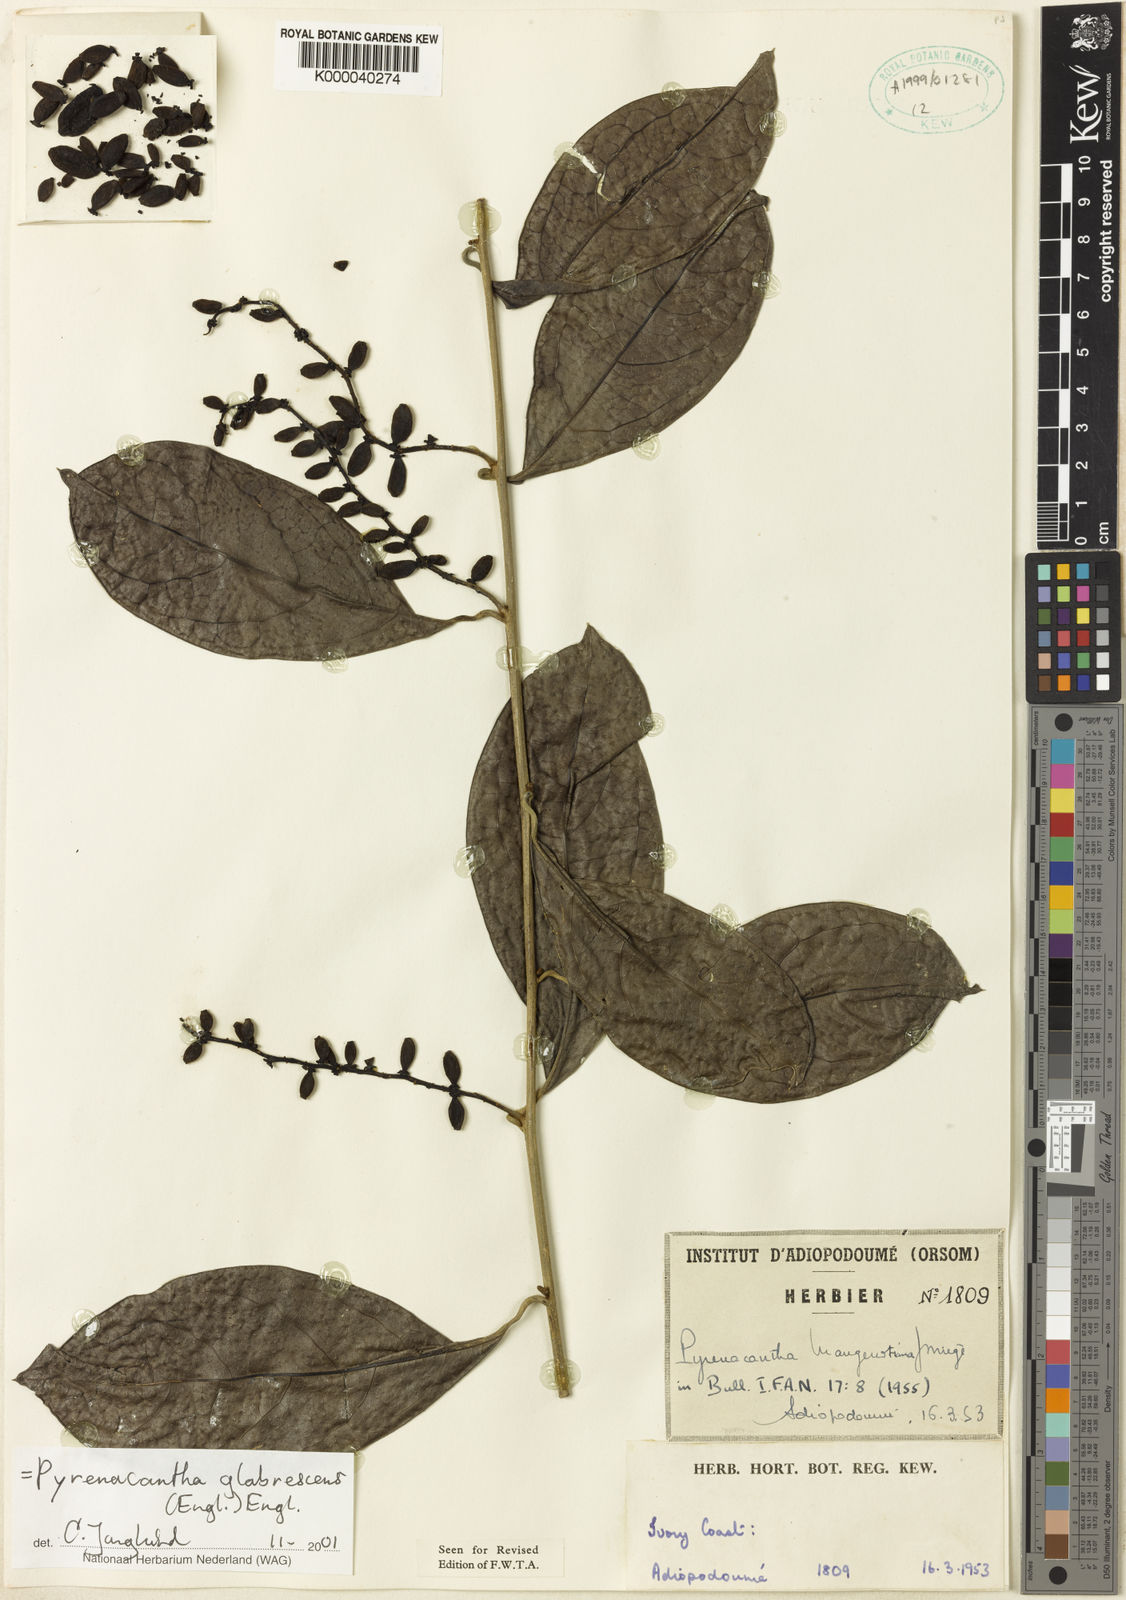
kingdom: Plantae
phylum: Tracheophyta
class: Magnoliopsida
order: Icacinales
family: Icacinaceae
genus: Pyrenacantha
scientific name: Pyrenacantha glabrescens
